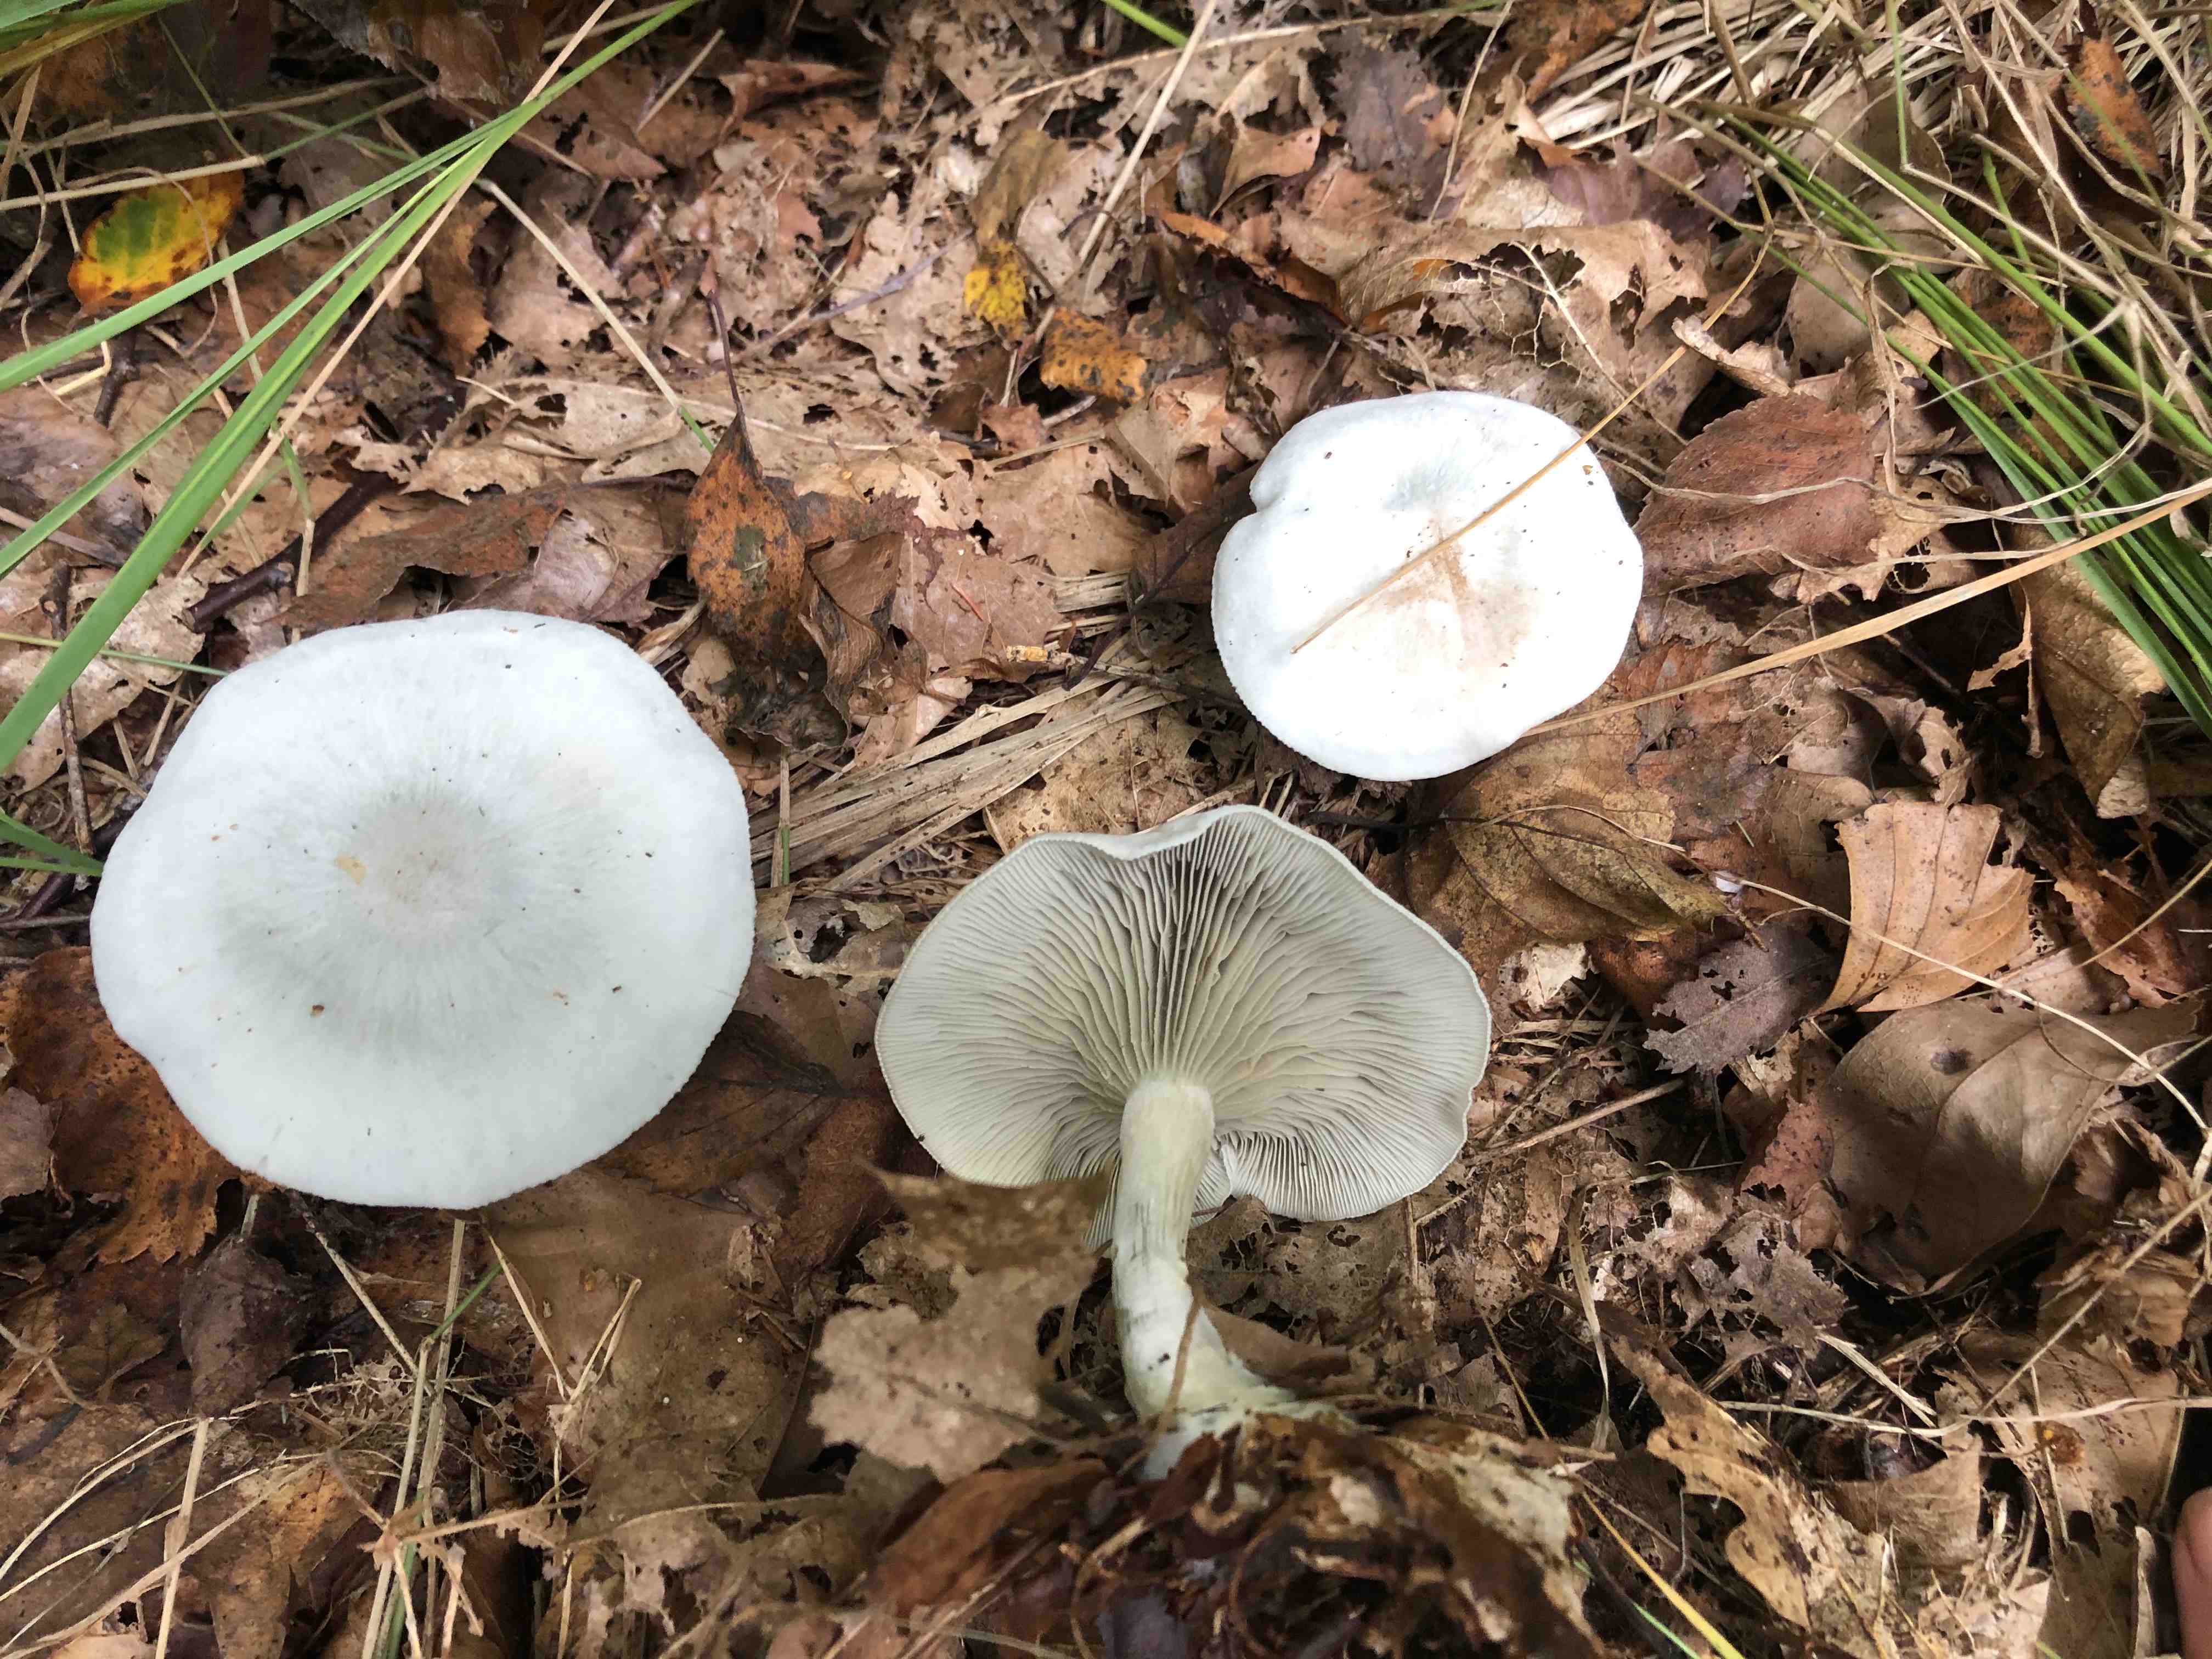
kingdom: Fungi
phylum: Basidiomycota
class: Agaricomycetes
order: Agaricales
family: Tricholomataceae
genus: Clitocybe
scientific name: Clitocybe odora
